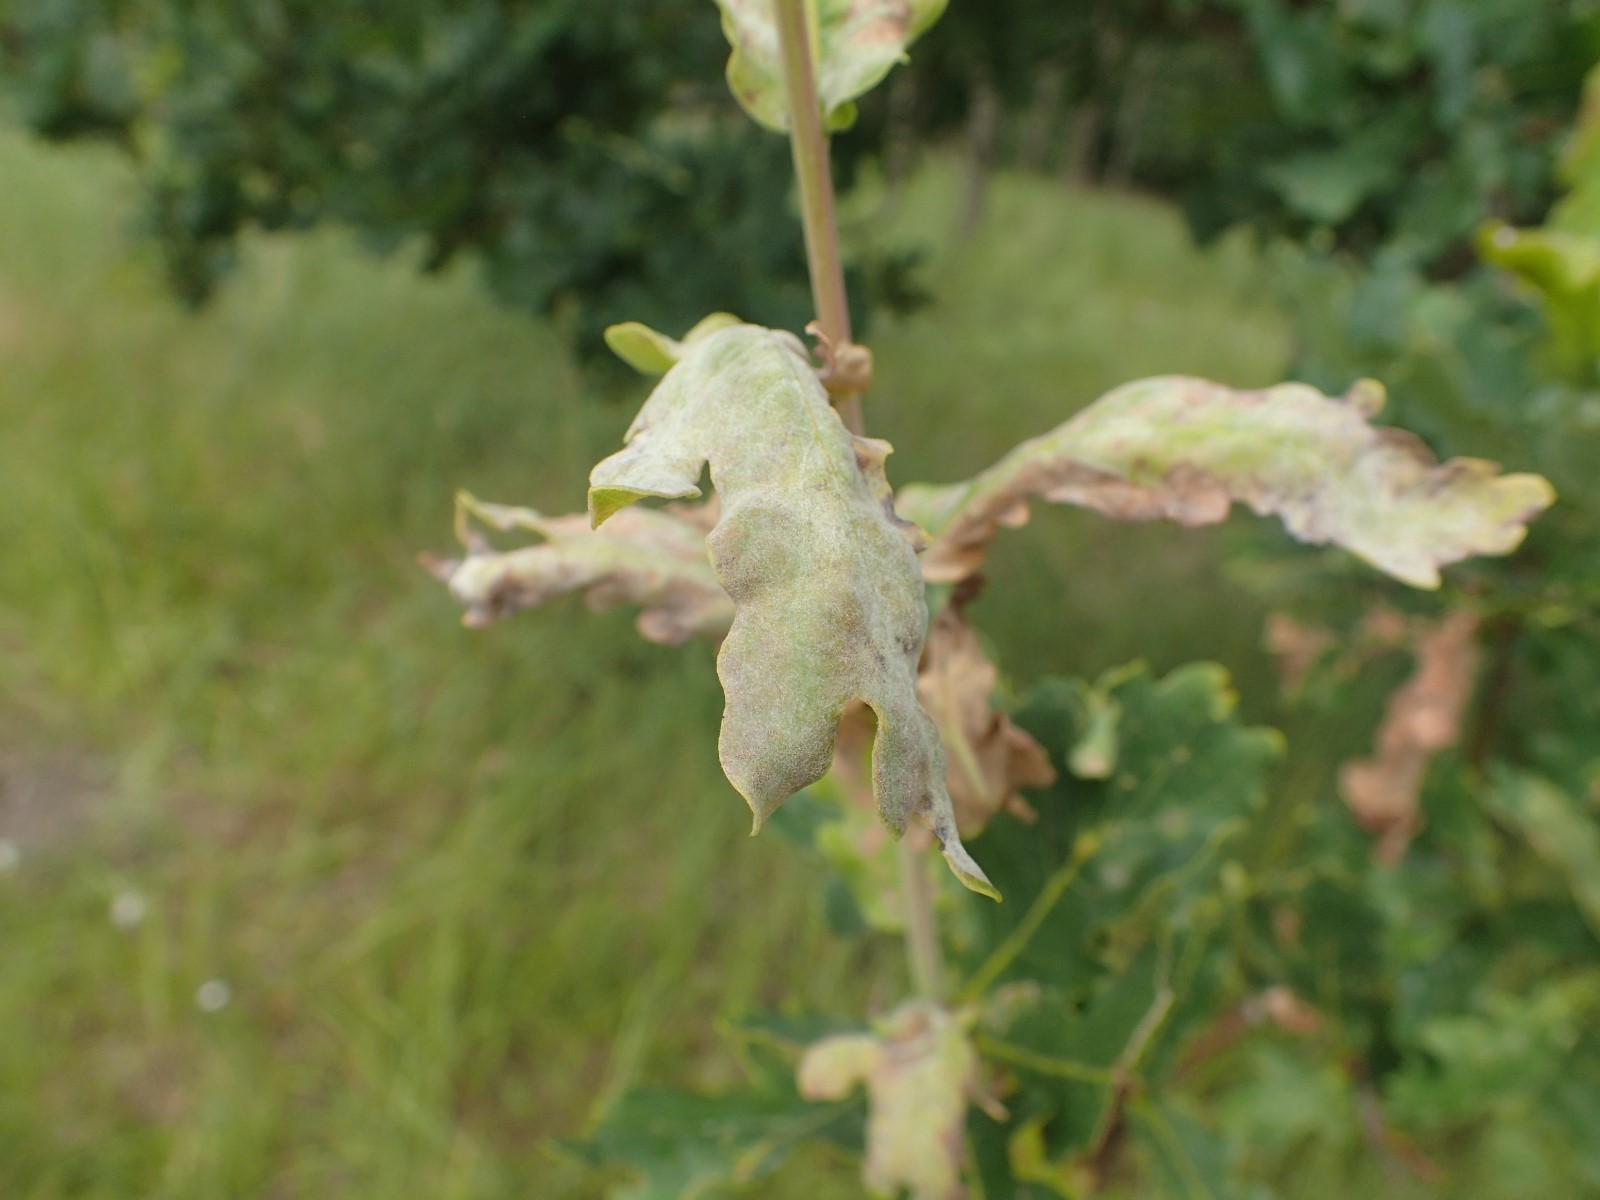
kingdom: Fungi
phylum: Ascomycota
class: Leotiomycetes
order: Helotiales
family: Erysiphaceae
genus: Erysiphe
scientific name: Erysiphe alphitoides
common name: ege-meldug
